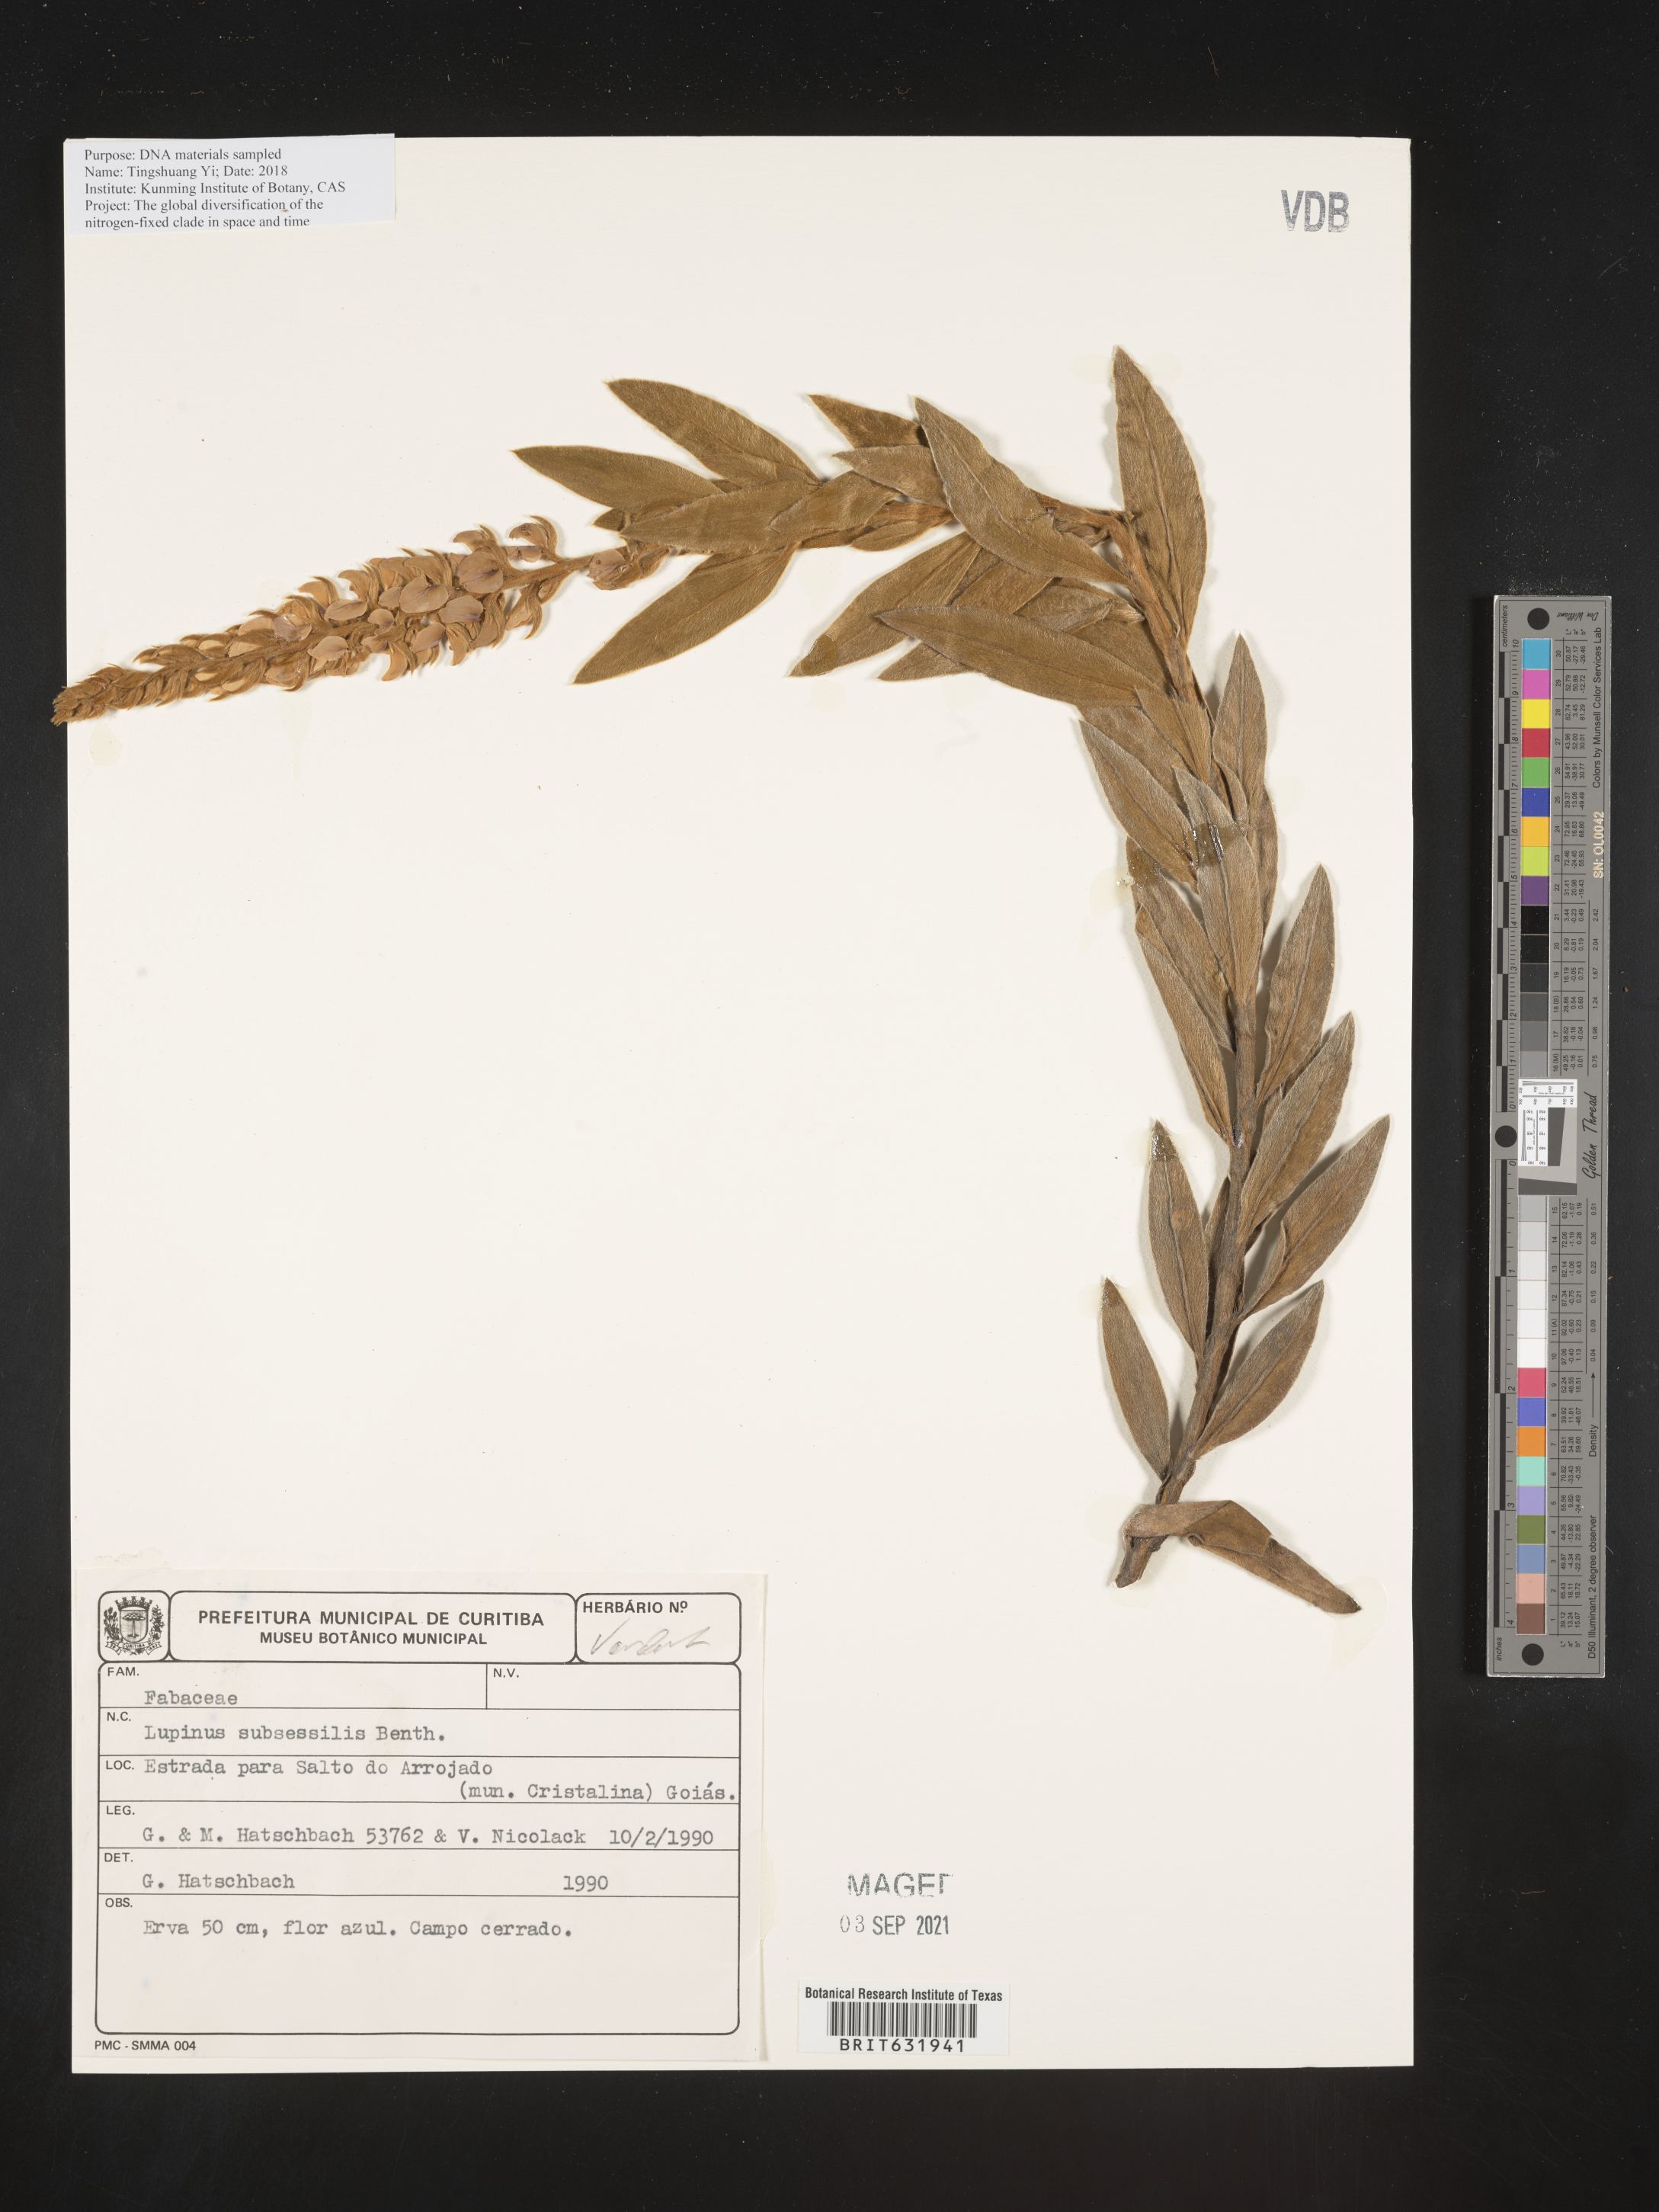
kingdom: Plantae
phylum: Tracheophyta
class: Magnoliopsida
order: Fabales
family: Fabaceae
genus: Lupinus
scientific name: Lupinus
